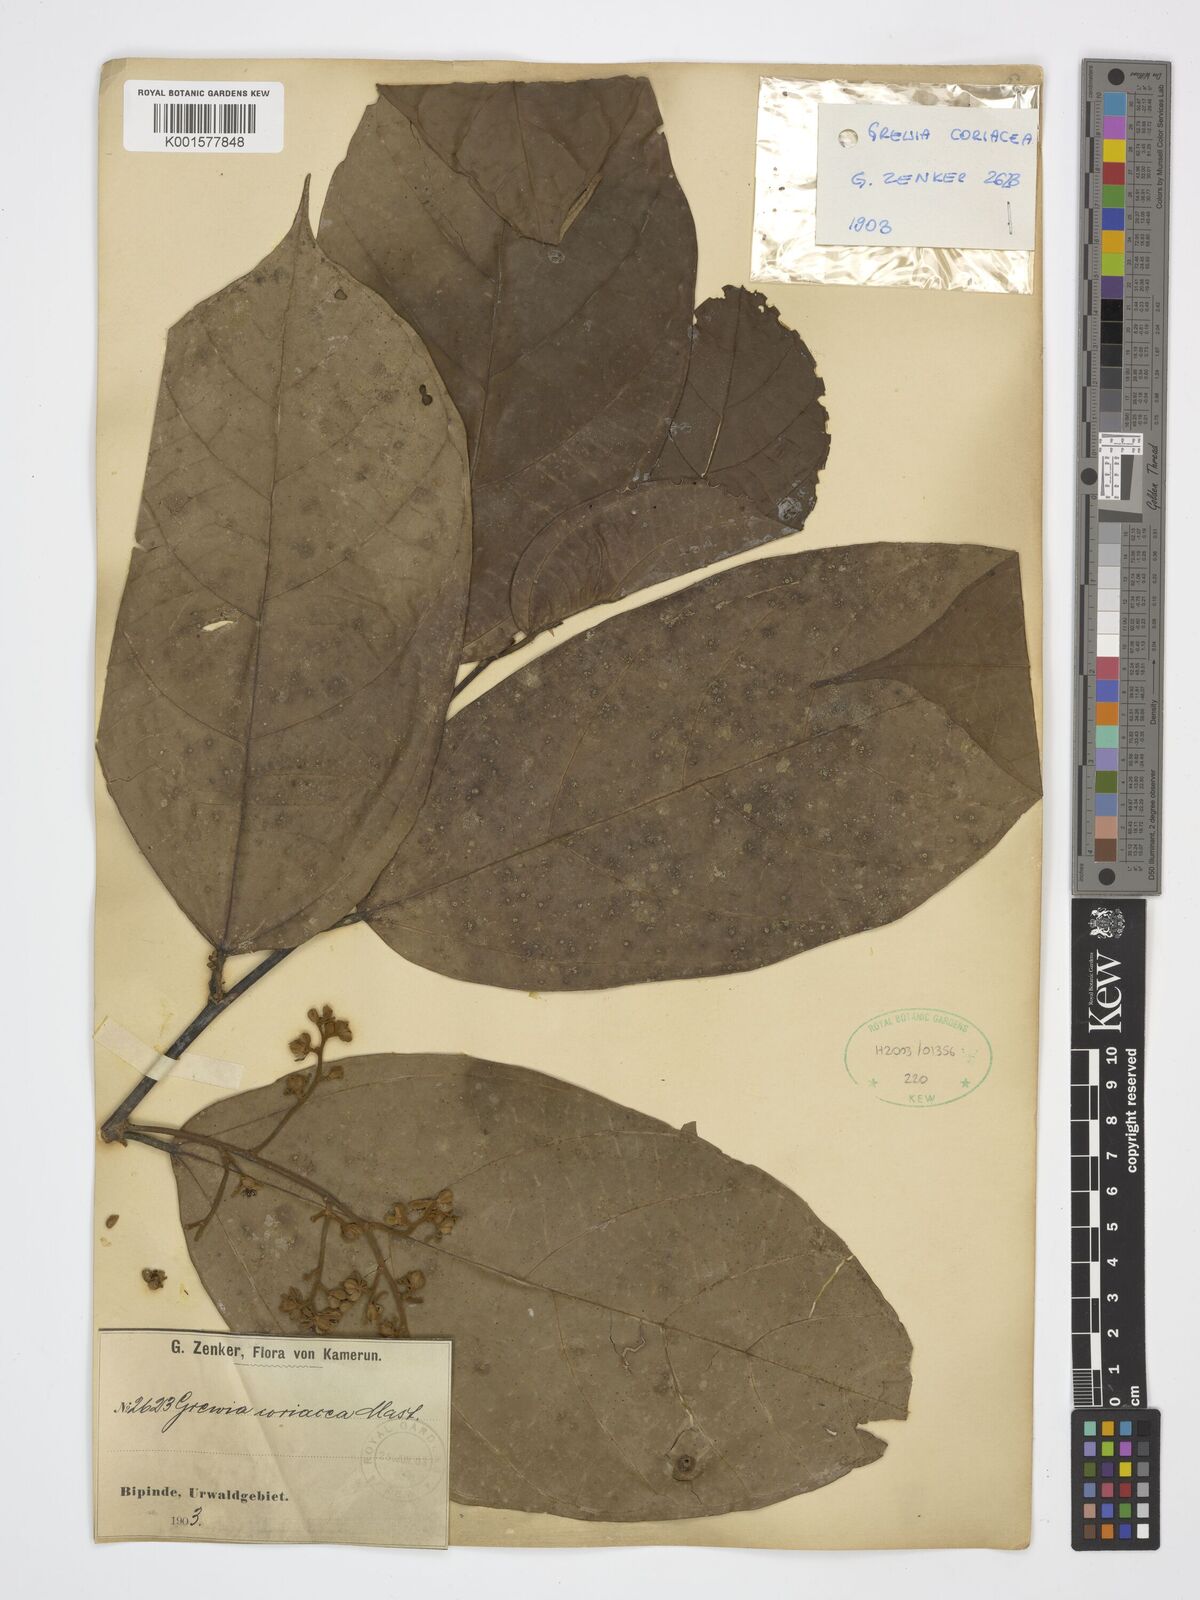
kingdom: Plantae
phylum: Tracheophyta
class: Magnoliopsida
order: Malvales
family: Malvaceae
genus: Microcos
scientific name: Microcos coriacea
